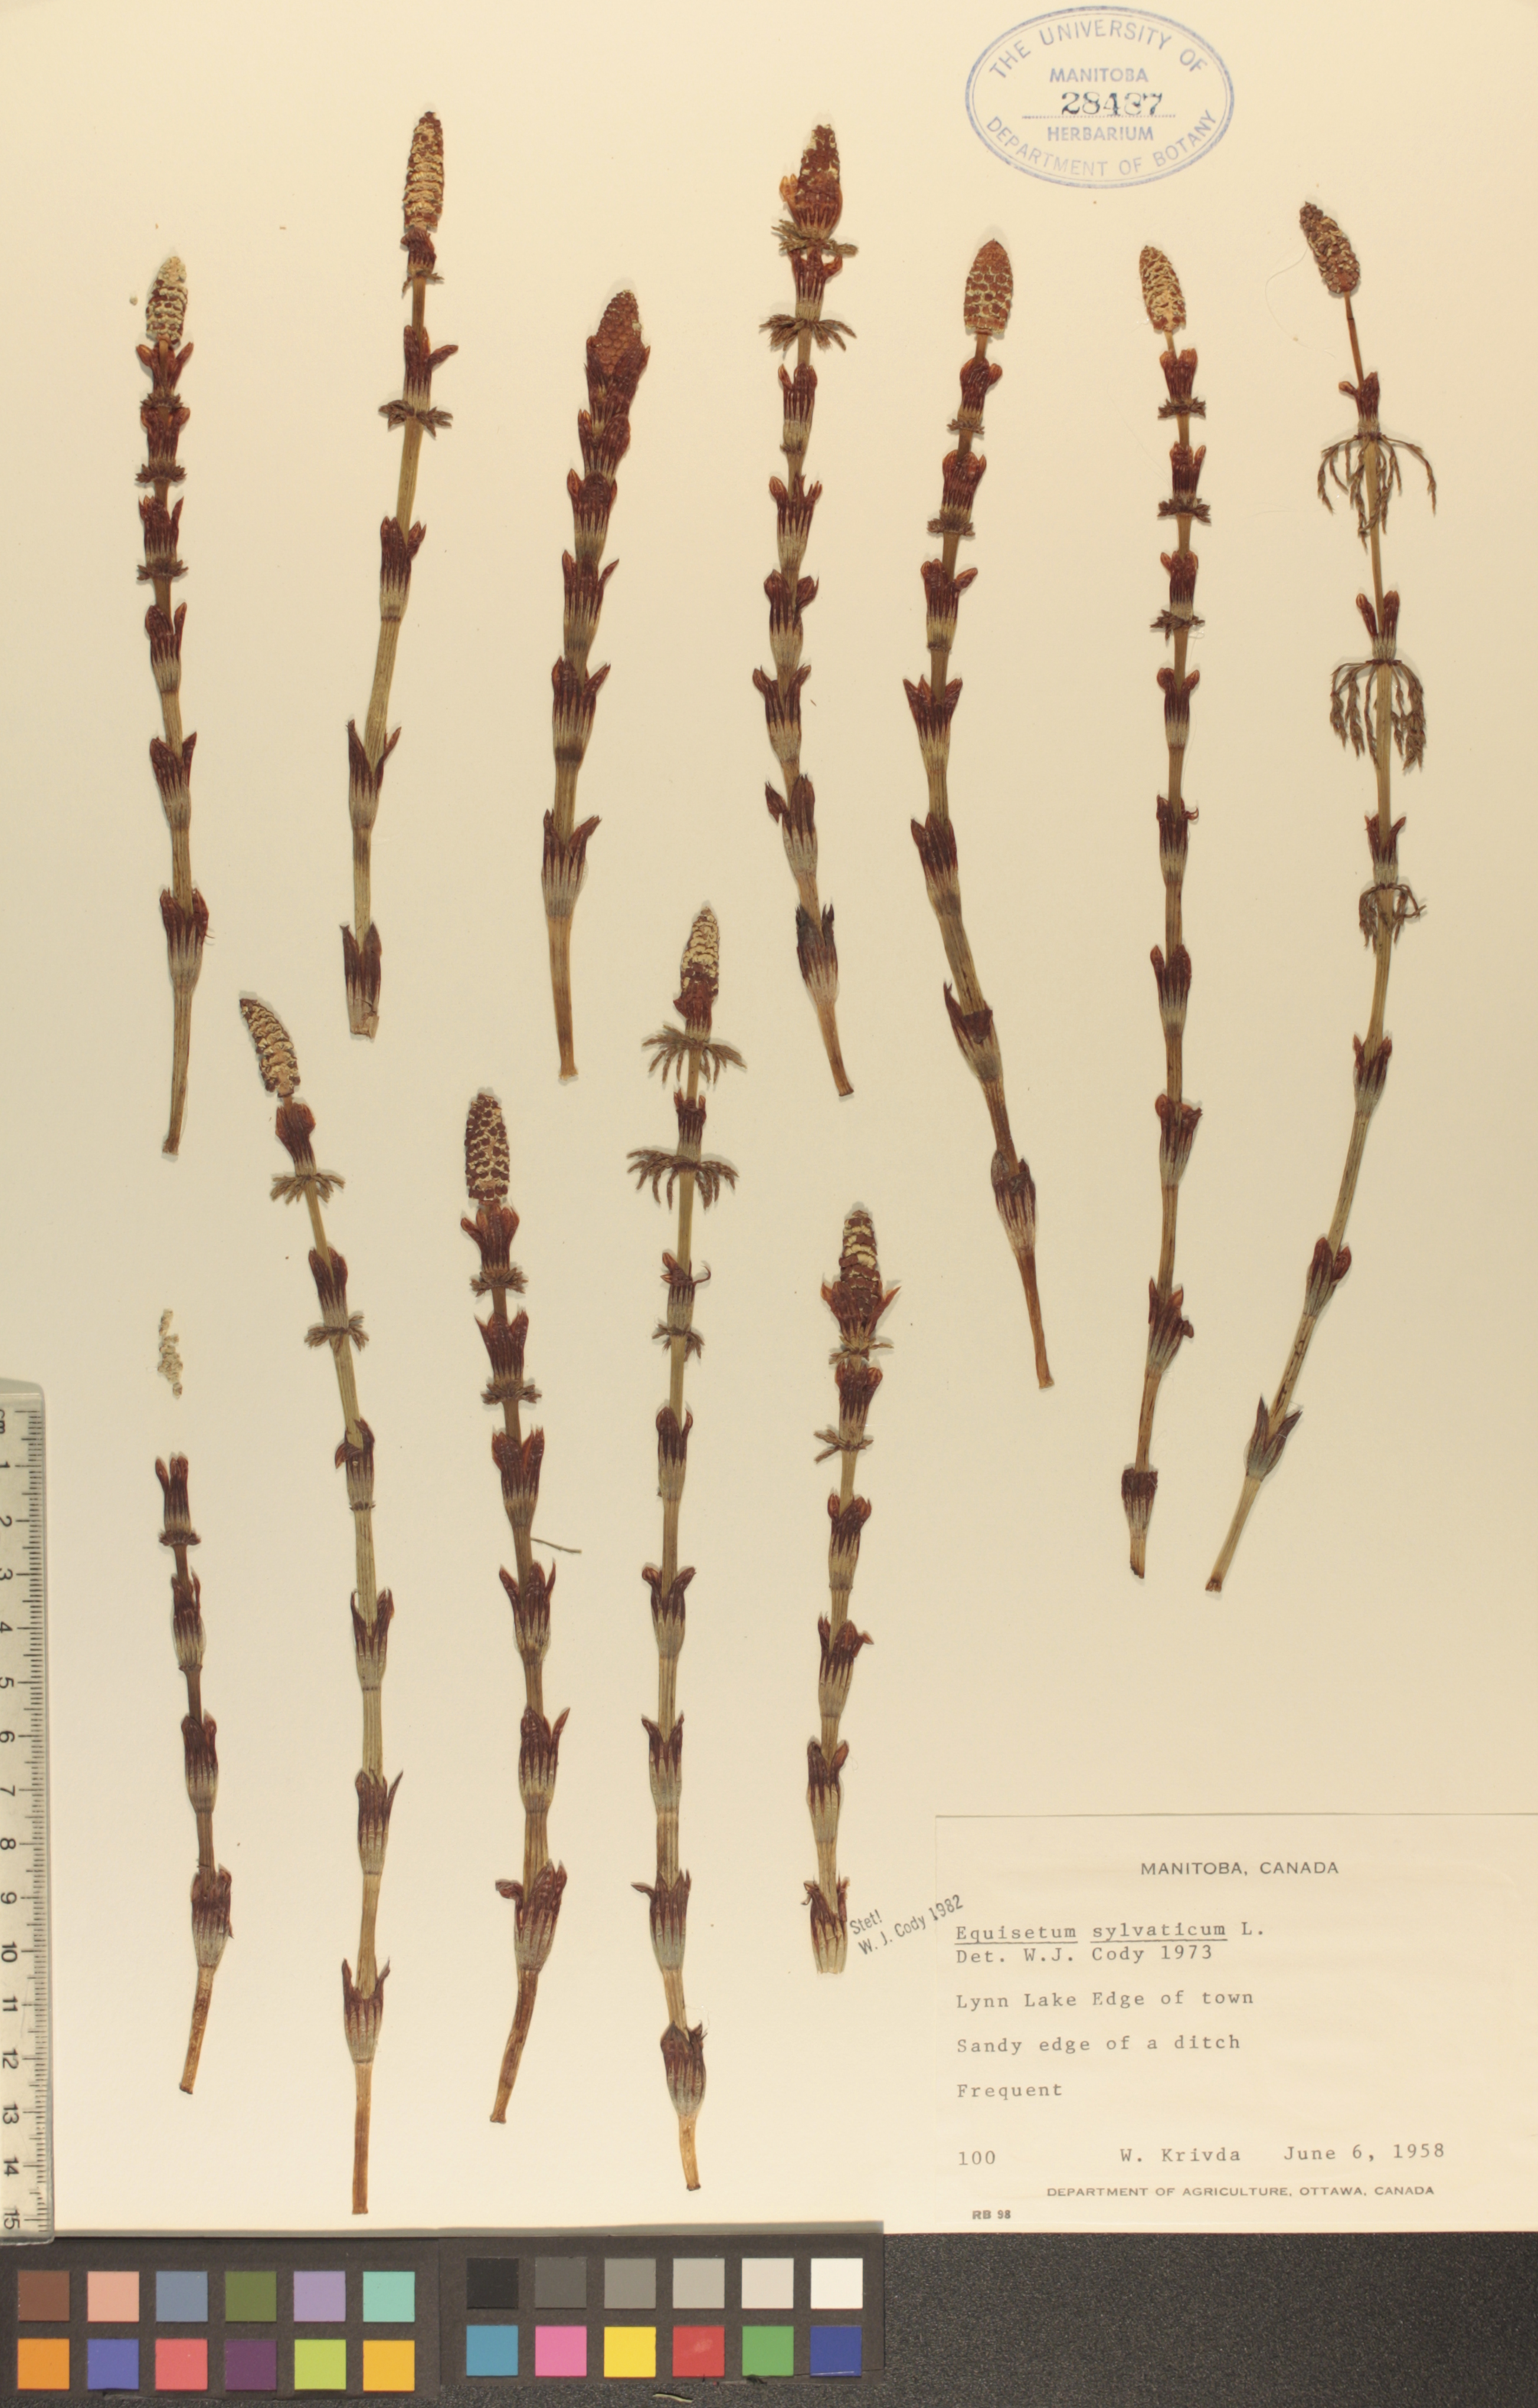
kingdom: Plantae
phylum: Tracheophyta
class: Polypodiopsida
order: Equisetales
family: Equisetaceae
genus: Equisetum
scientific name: Equisetum sylvaticum
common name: Wood horsetail
